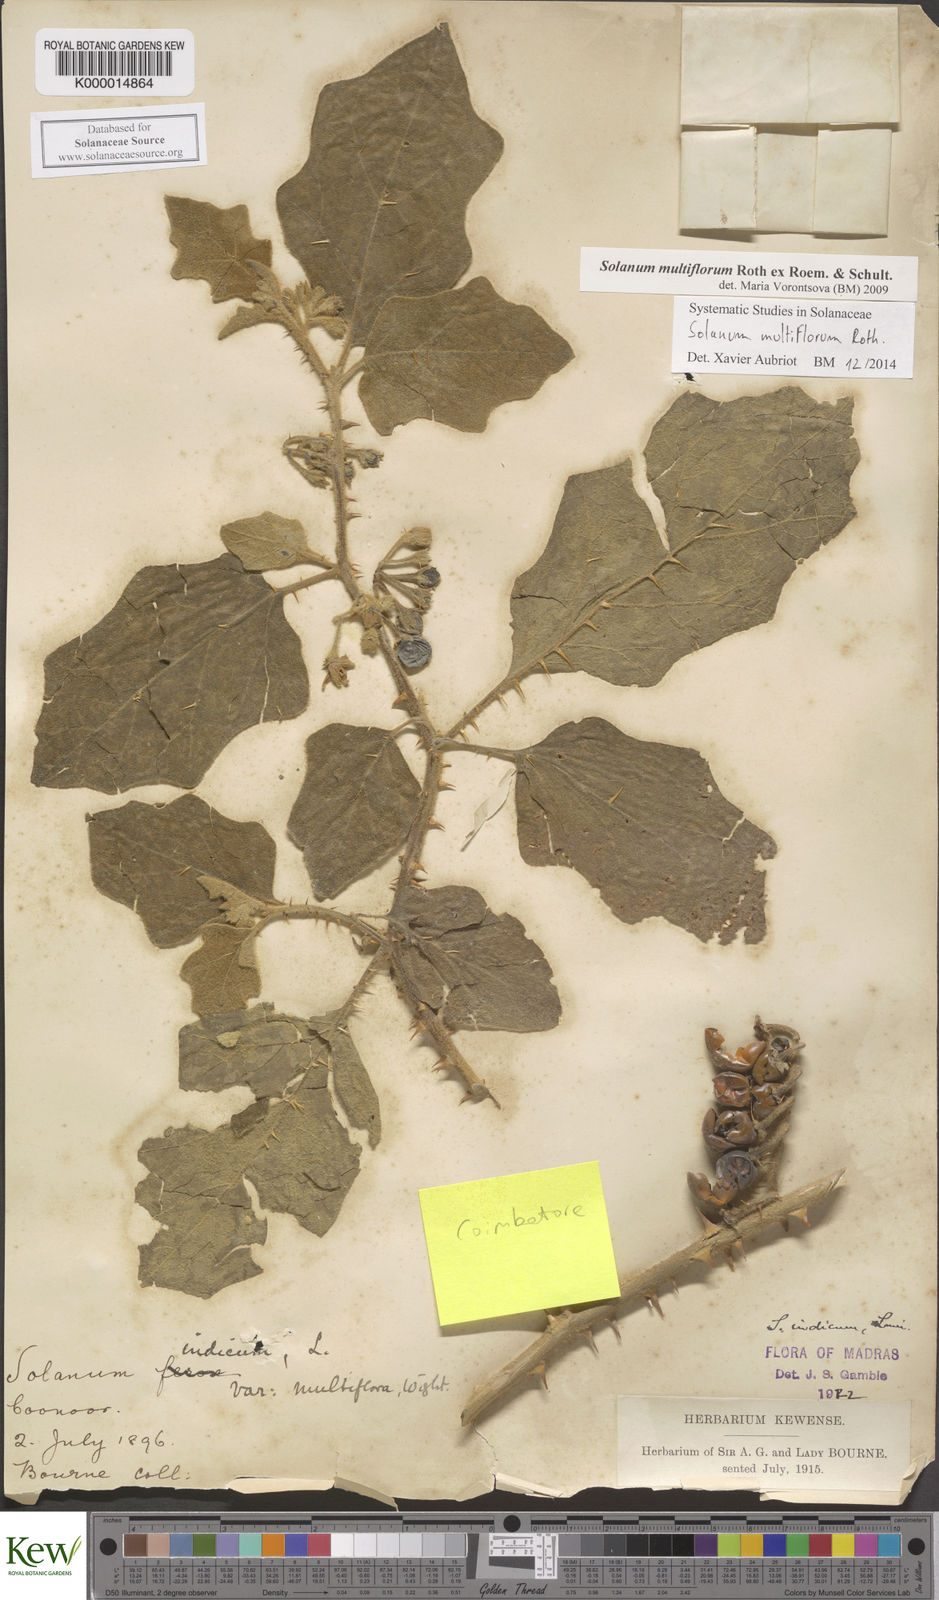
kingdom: Plantae
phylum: Tracheophyta
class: Magnoliopsida
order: Solanales
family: Solanaceae
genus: Solanum
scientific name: Solanum multiflorum
